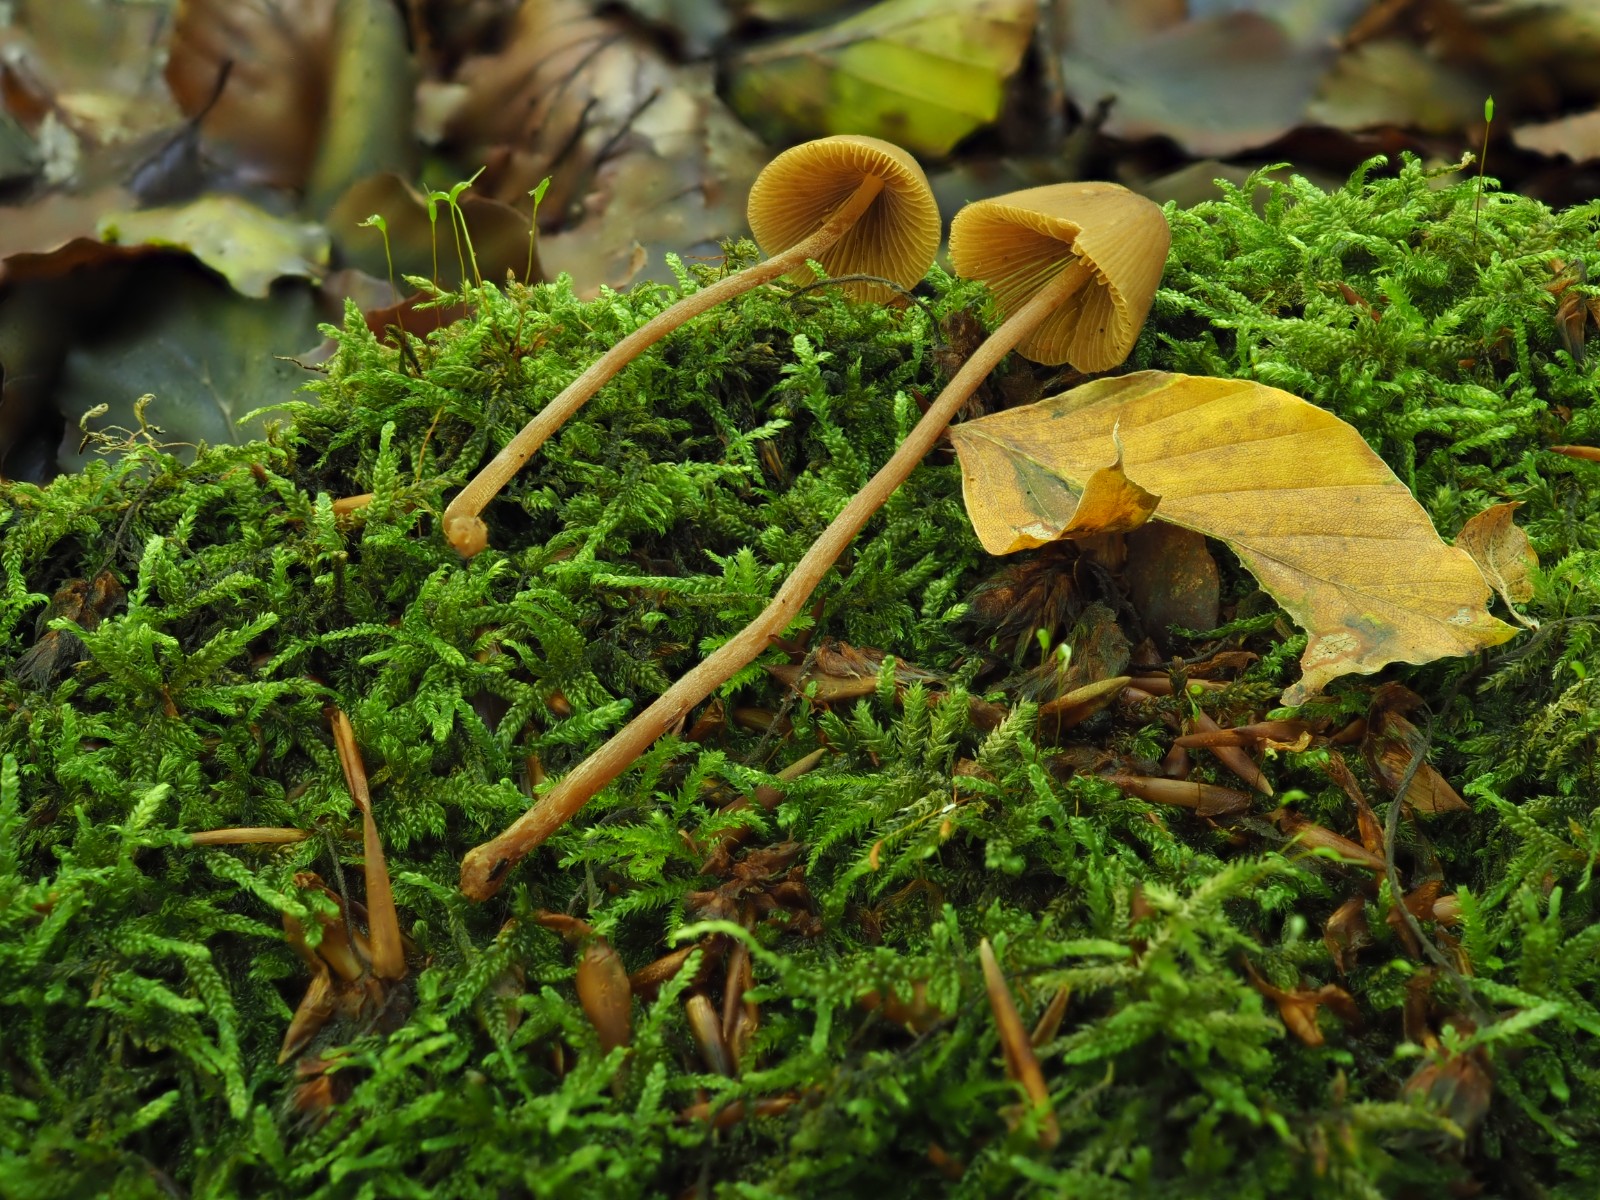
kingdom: Fungi
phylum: Basidiomycota
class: Agaricomycetes
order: Agaricales
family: Bolbitiaceae
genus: Conocybe
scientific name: Conocybe subpubescens
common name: krat-keglehat
